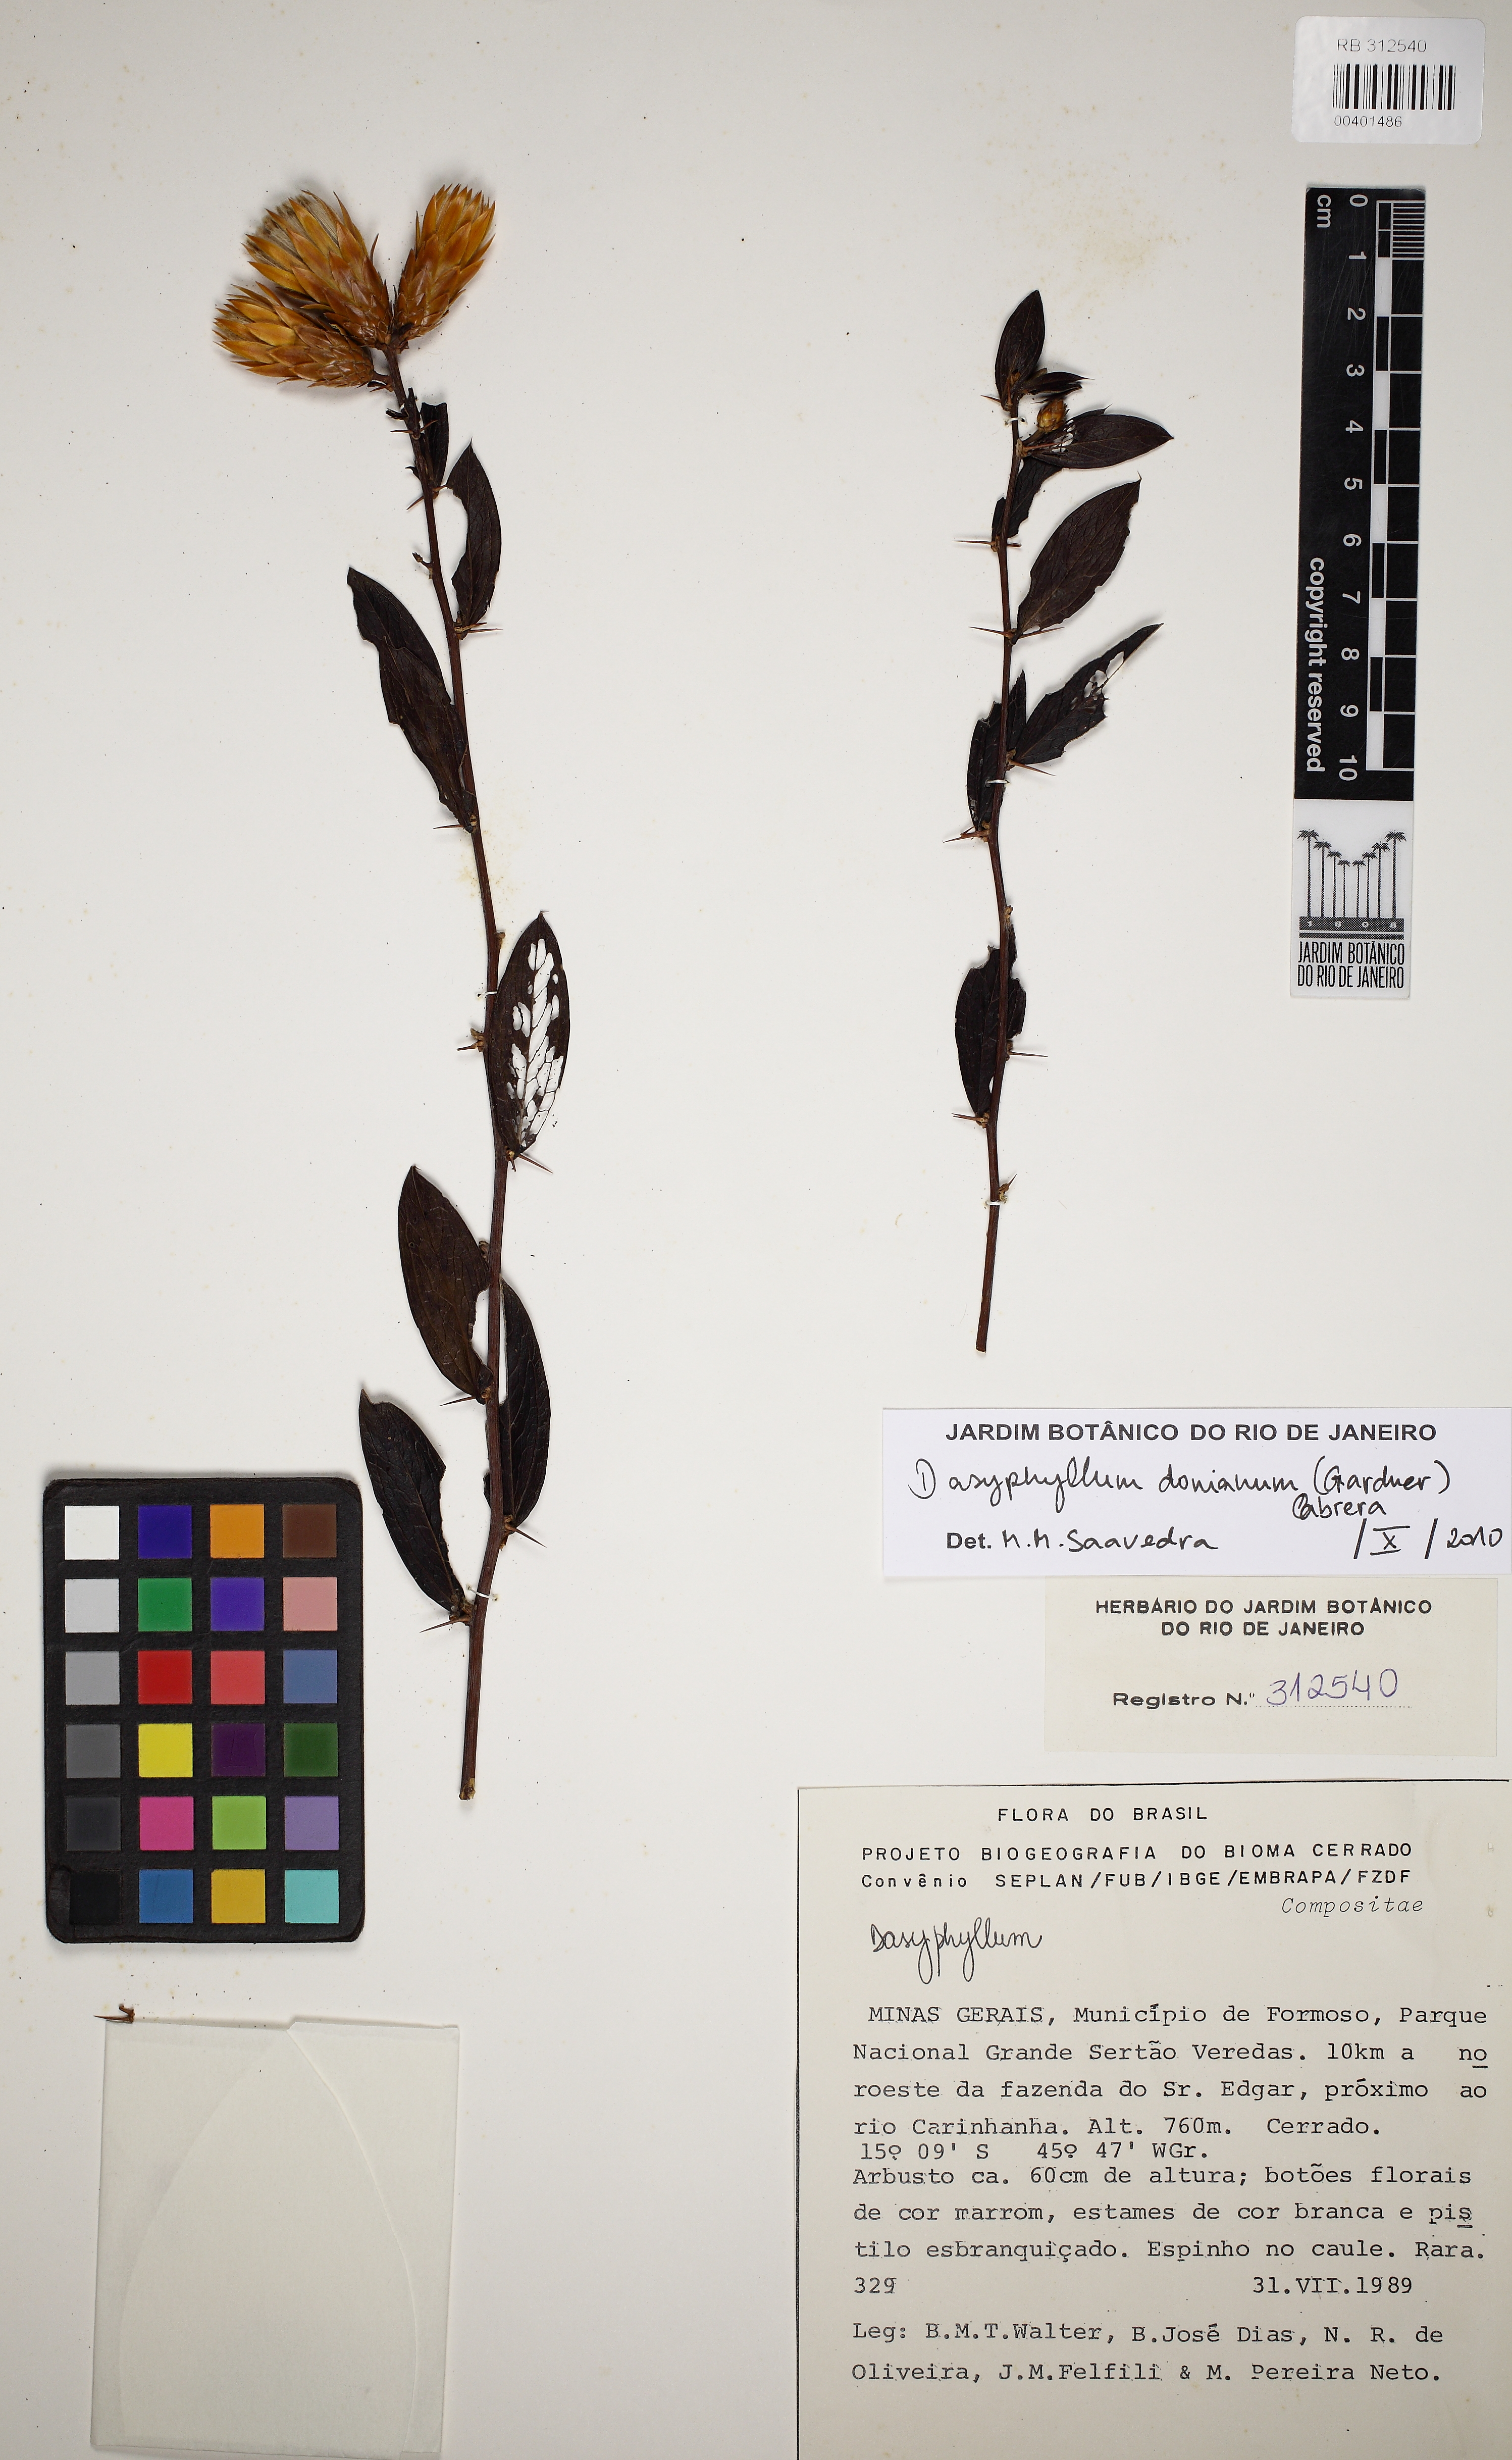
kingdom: Plantae
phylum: Tracheophyta
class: Magnoliopsida
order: Asterales
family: Asteraceae
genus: Dasyphyllum
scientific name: Dasyphyllum donianum
